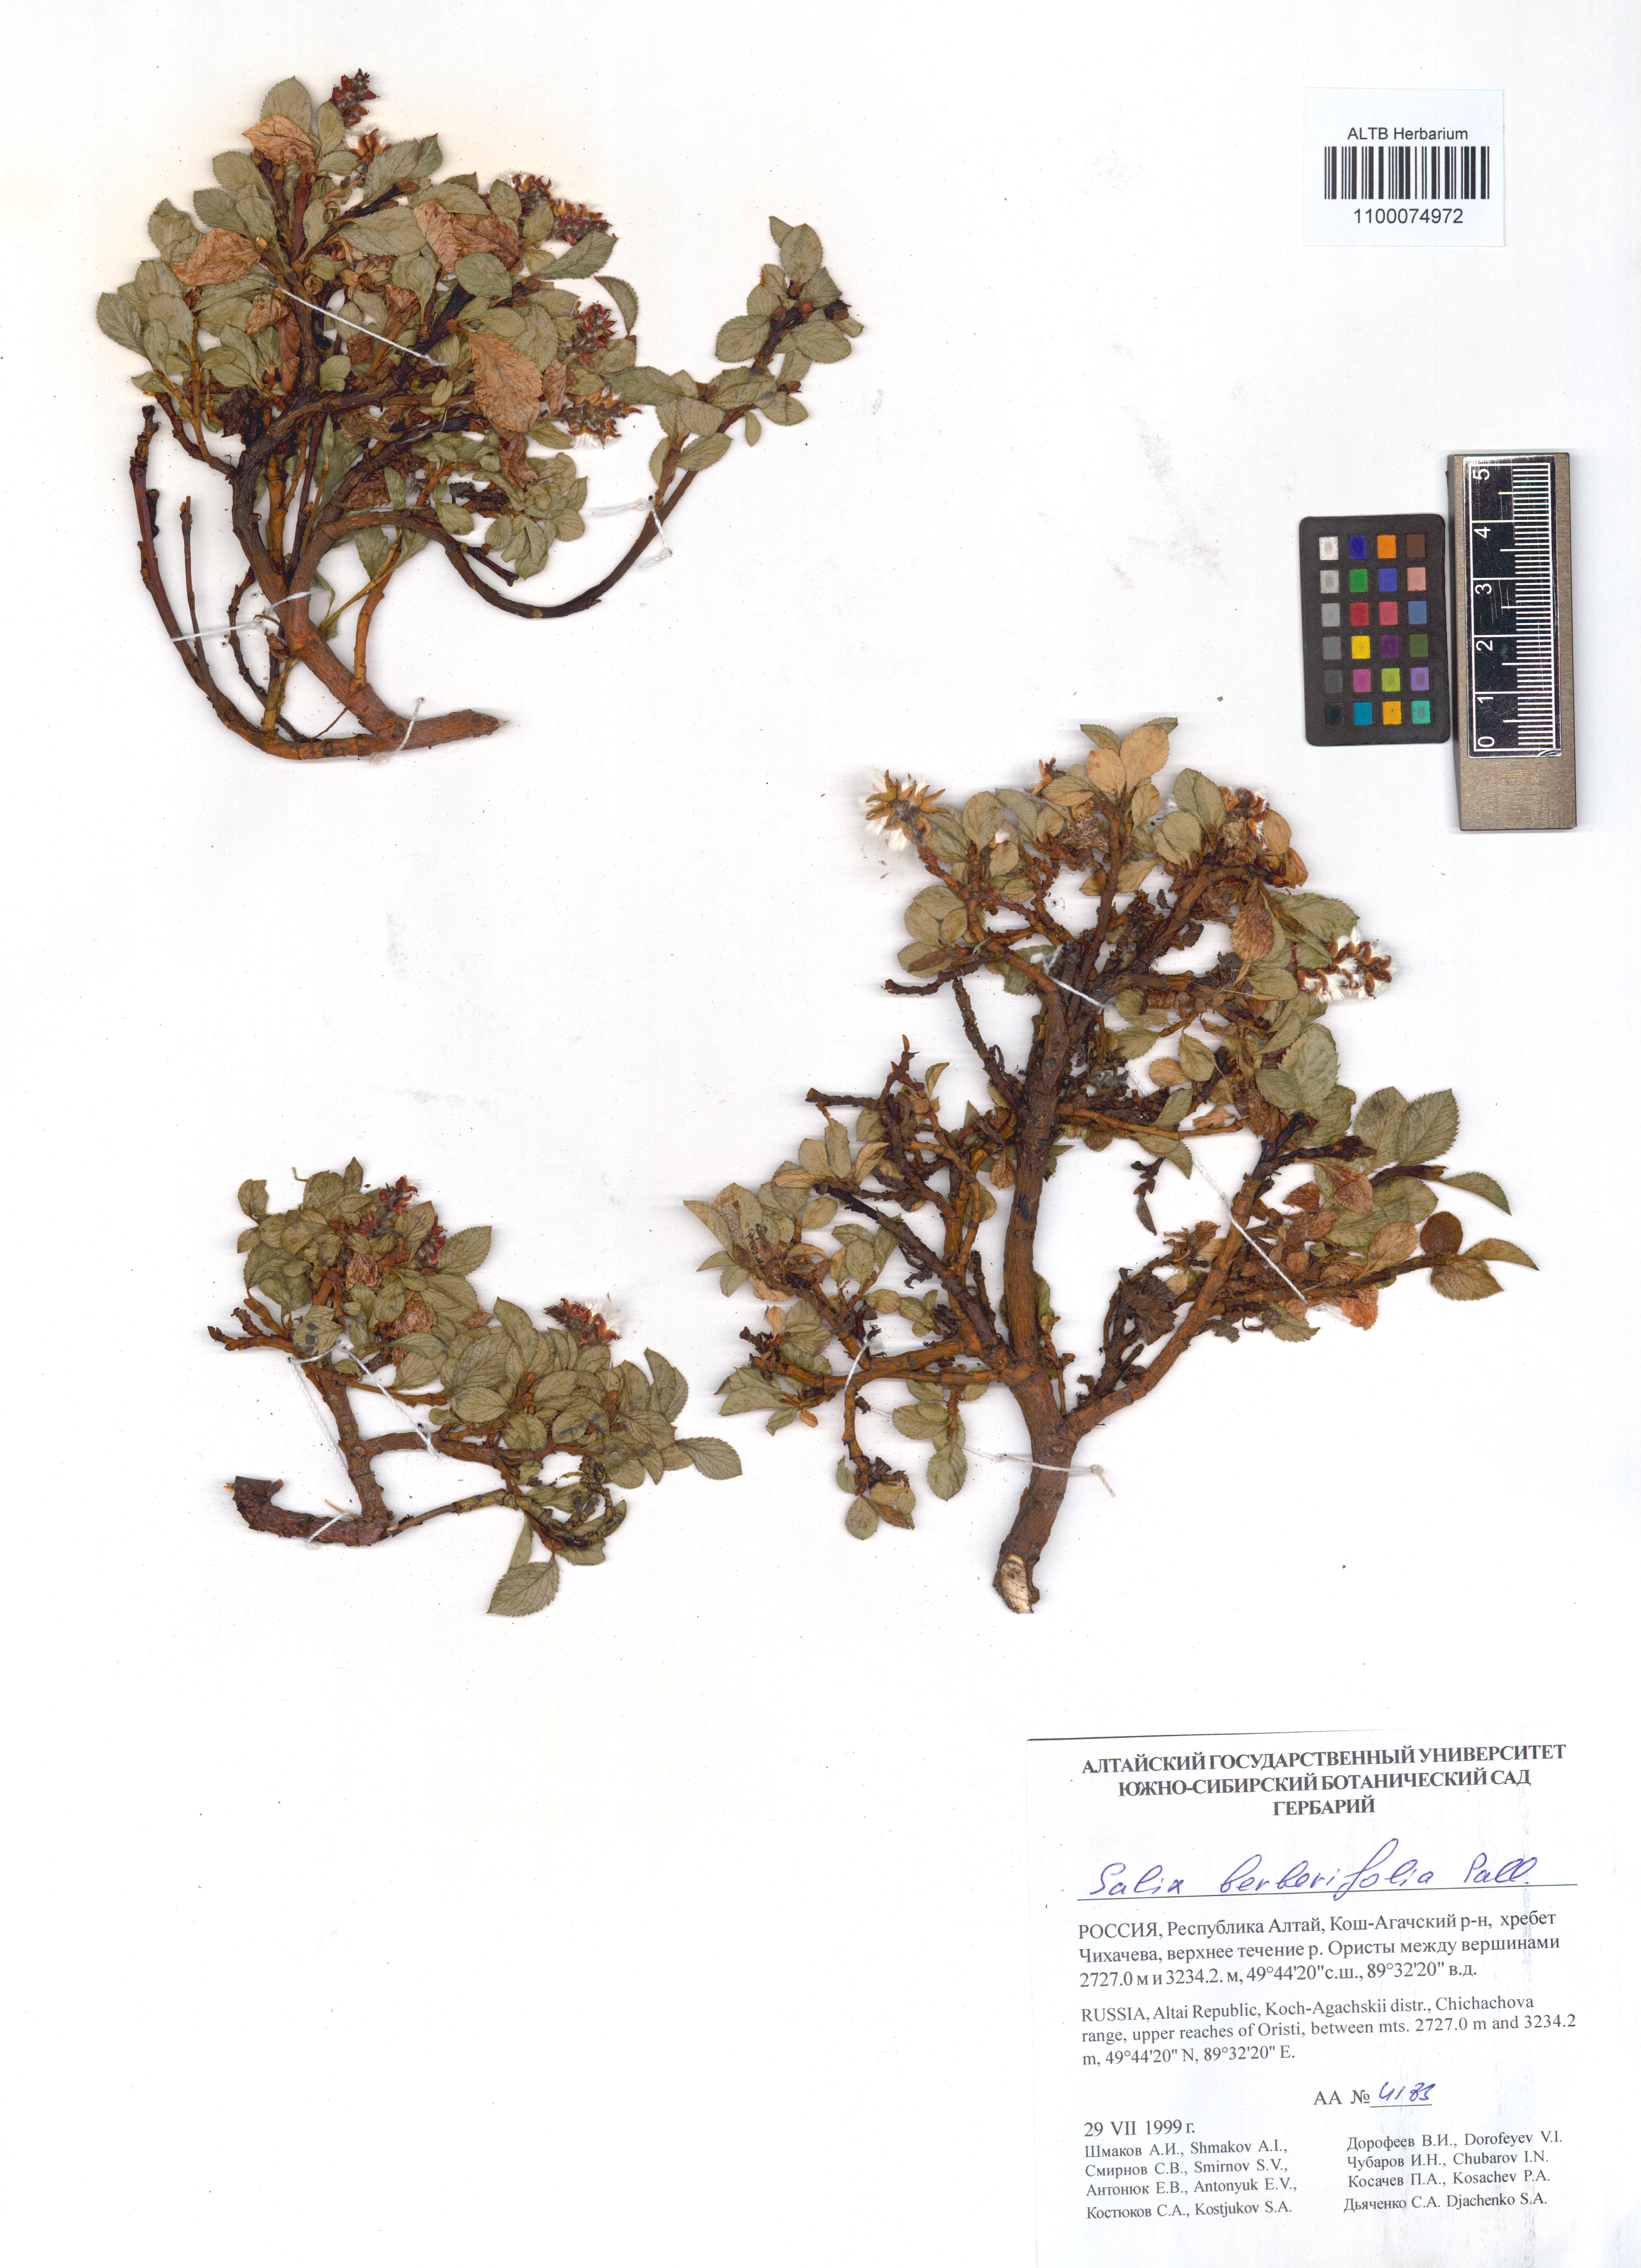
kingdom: Plantae
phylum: Tracheophyta
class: Magnoliopsida
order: Malpighiales
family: Salicaceae
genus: Salix
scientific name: Salix berberifolia
